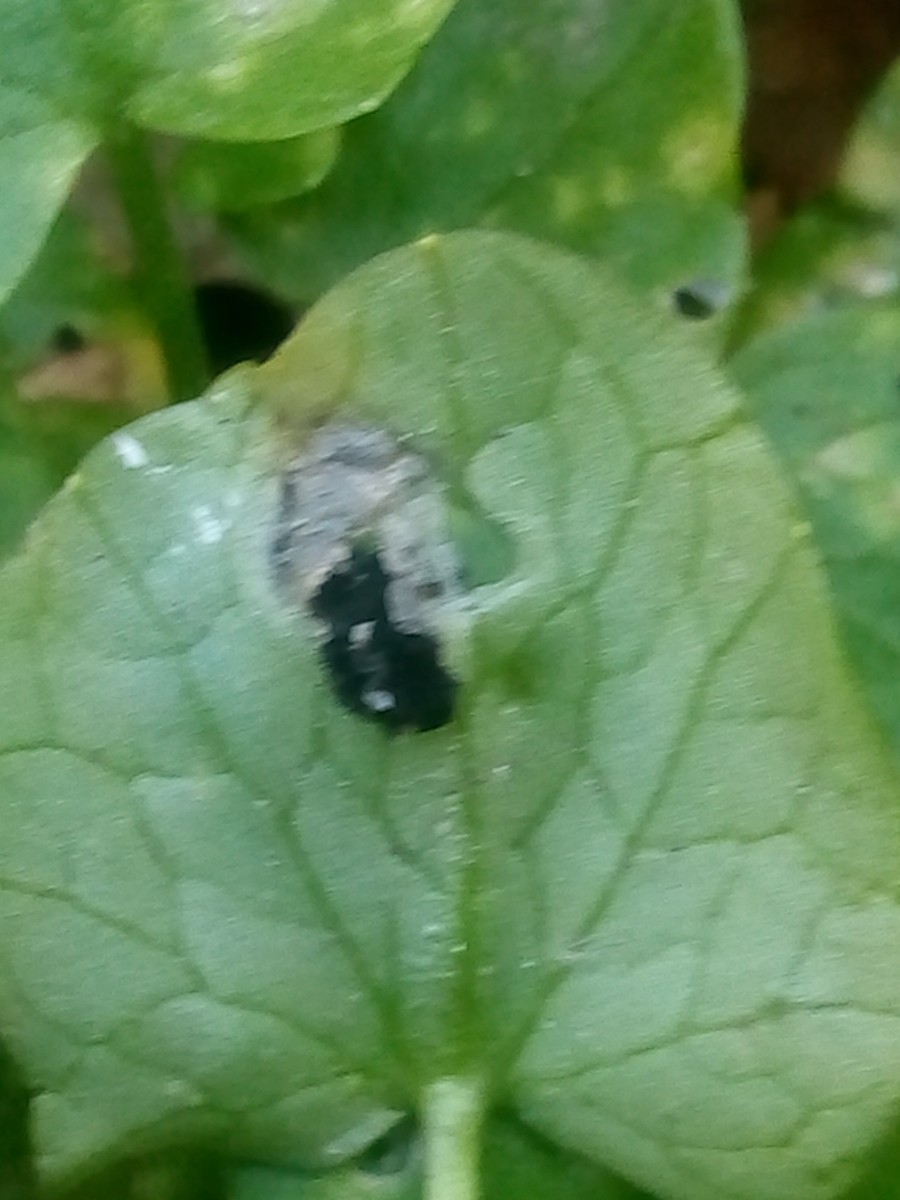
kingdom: Fungi
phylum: Basidiomycota
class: Ustilaginomycetes
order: Urocystidales
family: Urocystidaceae
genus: Urocystis
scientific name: Urocystis ficariae
